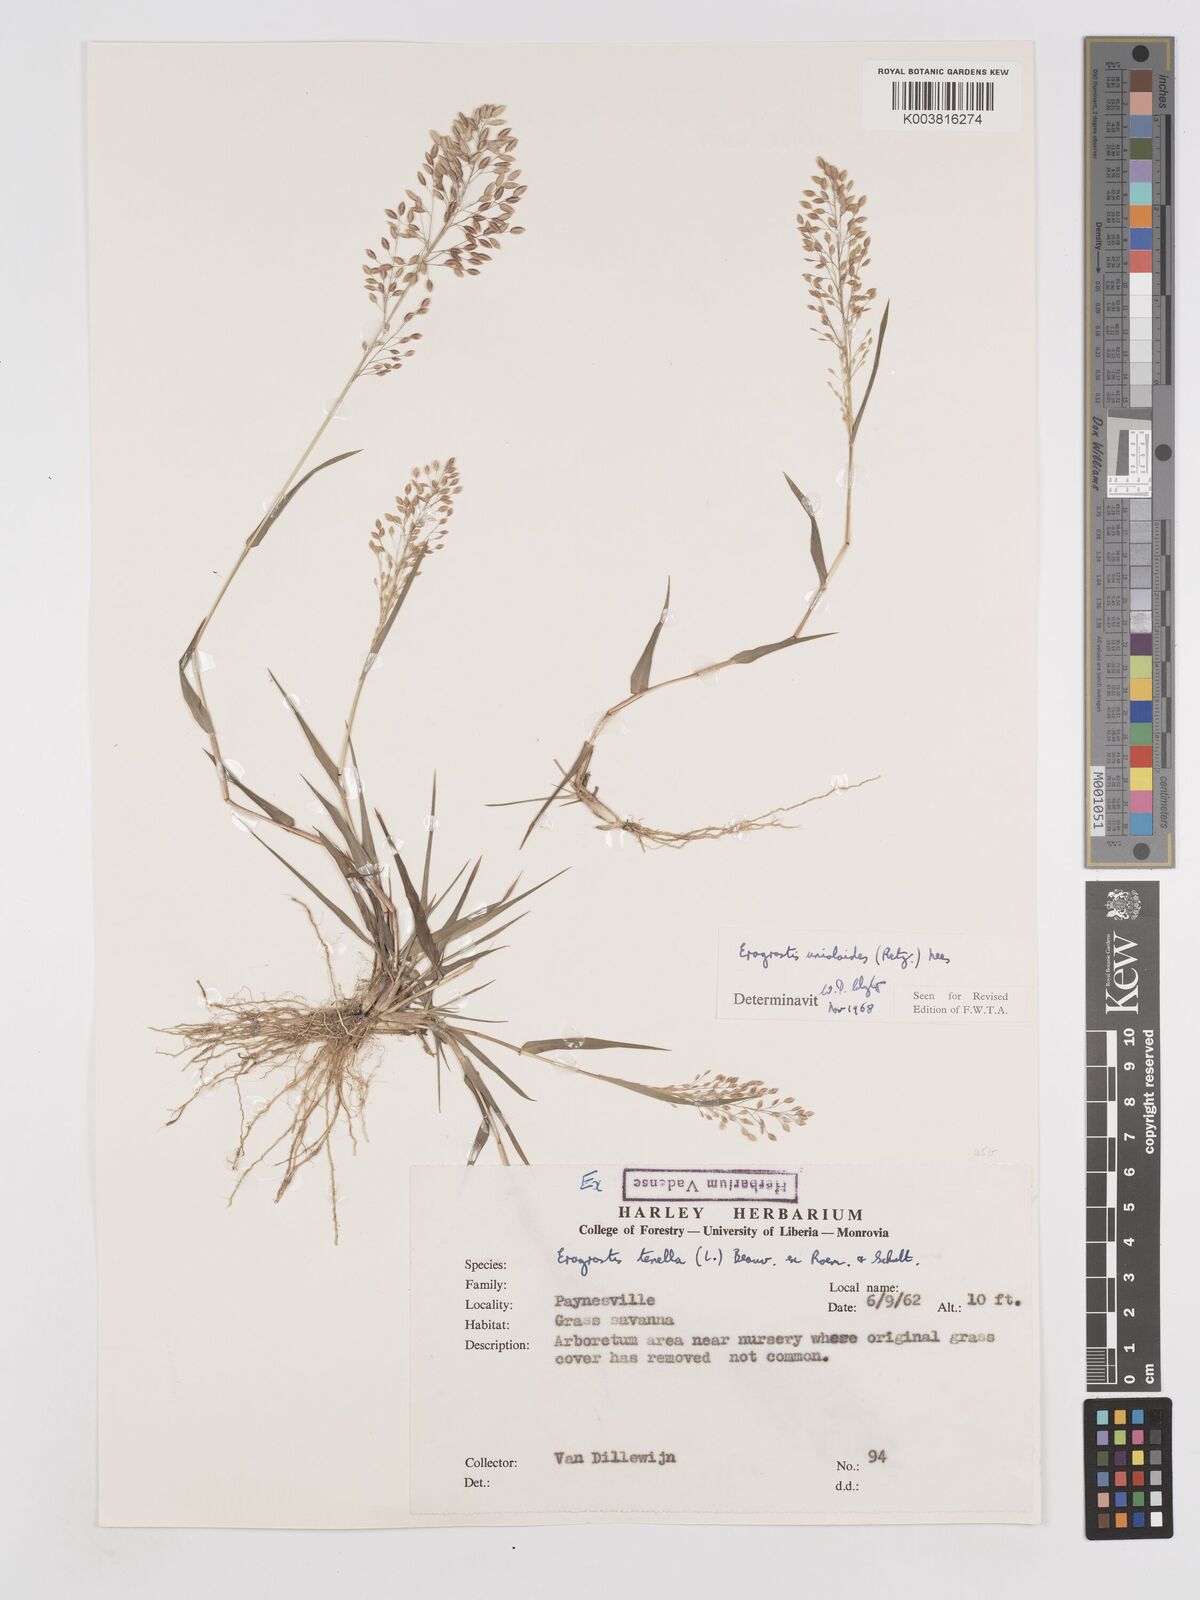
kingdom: Plantae
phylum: Tracheophyta
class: Liliopsida
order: Poales
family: Poaceae
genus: Eragrostis
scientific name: Eragrostis unioloides
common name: Chinese lovegrass
